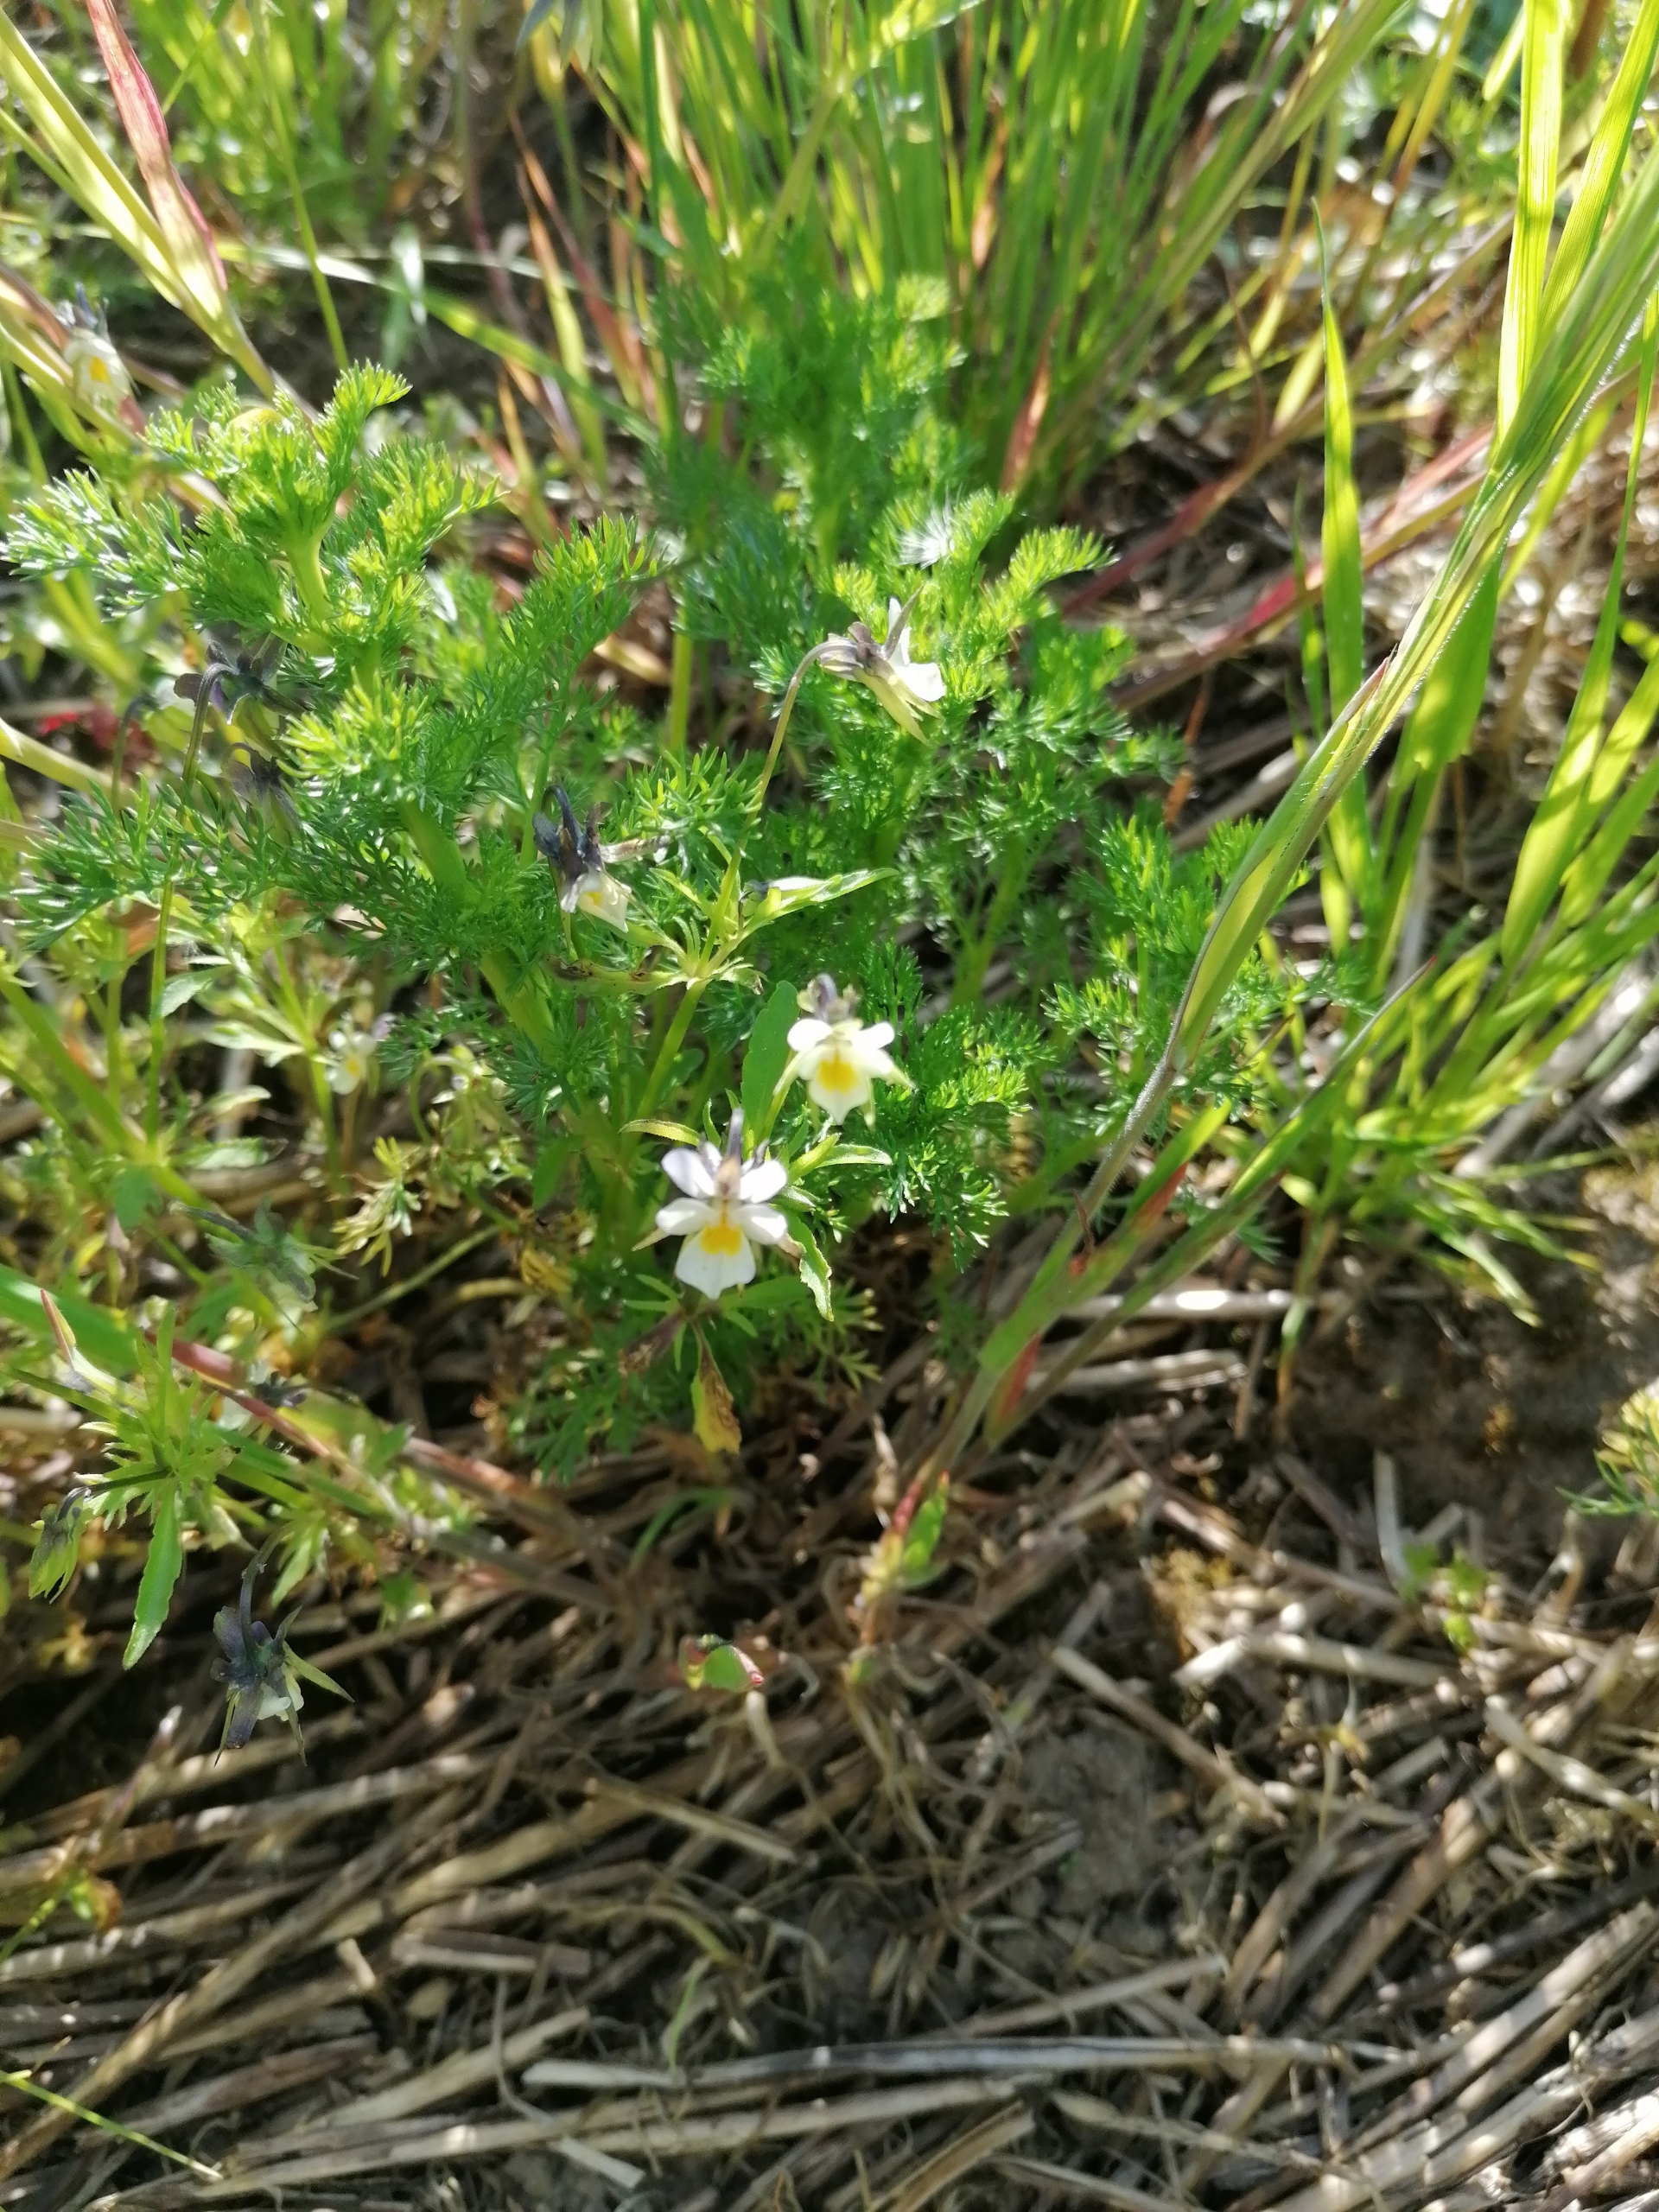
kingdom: Plantae
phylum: Tracheophyta
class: Magnoliopsida
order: Malpighiales
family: Violaceae
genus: Viola
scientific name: Viola arvensis
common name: Ager-stedmoderblomst
